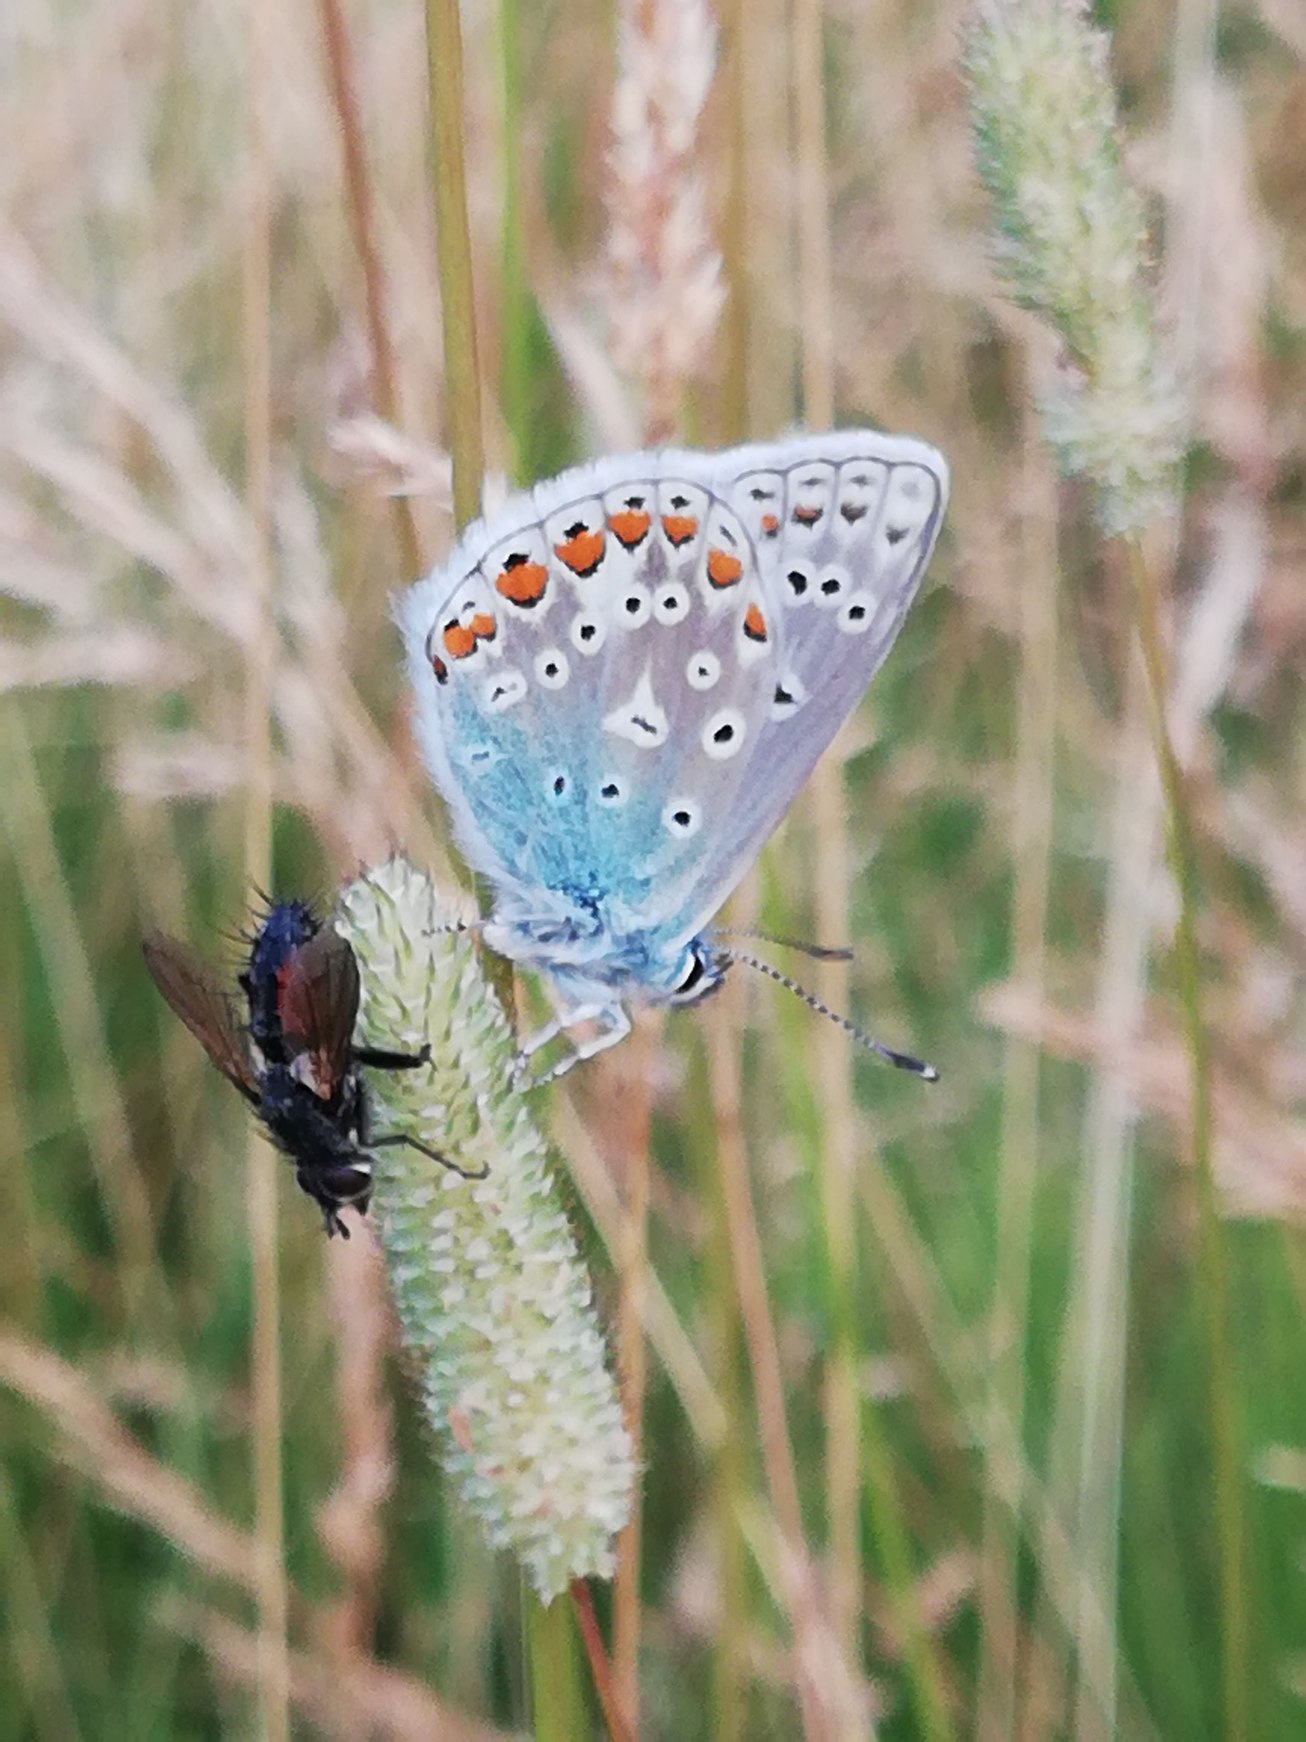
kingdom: Animalia
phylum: Arthropoda
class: Insecta
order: Lepidoptera
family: Lycaenidae
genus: Polyommatus
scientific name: Polyommatus icarus
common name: Almindelig blåfugl
